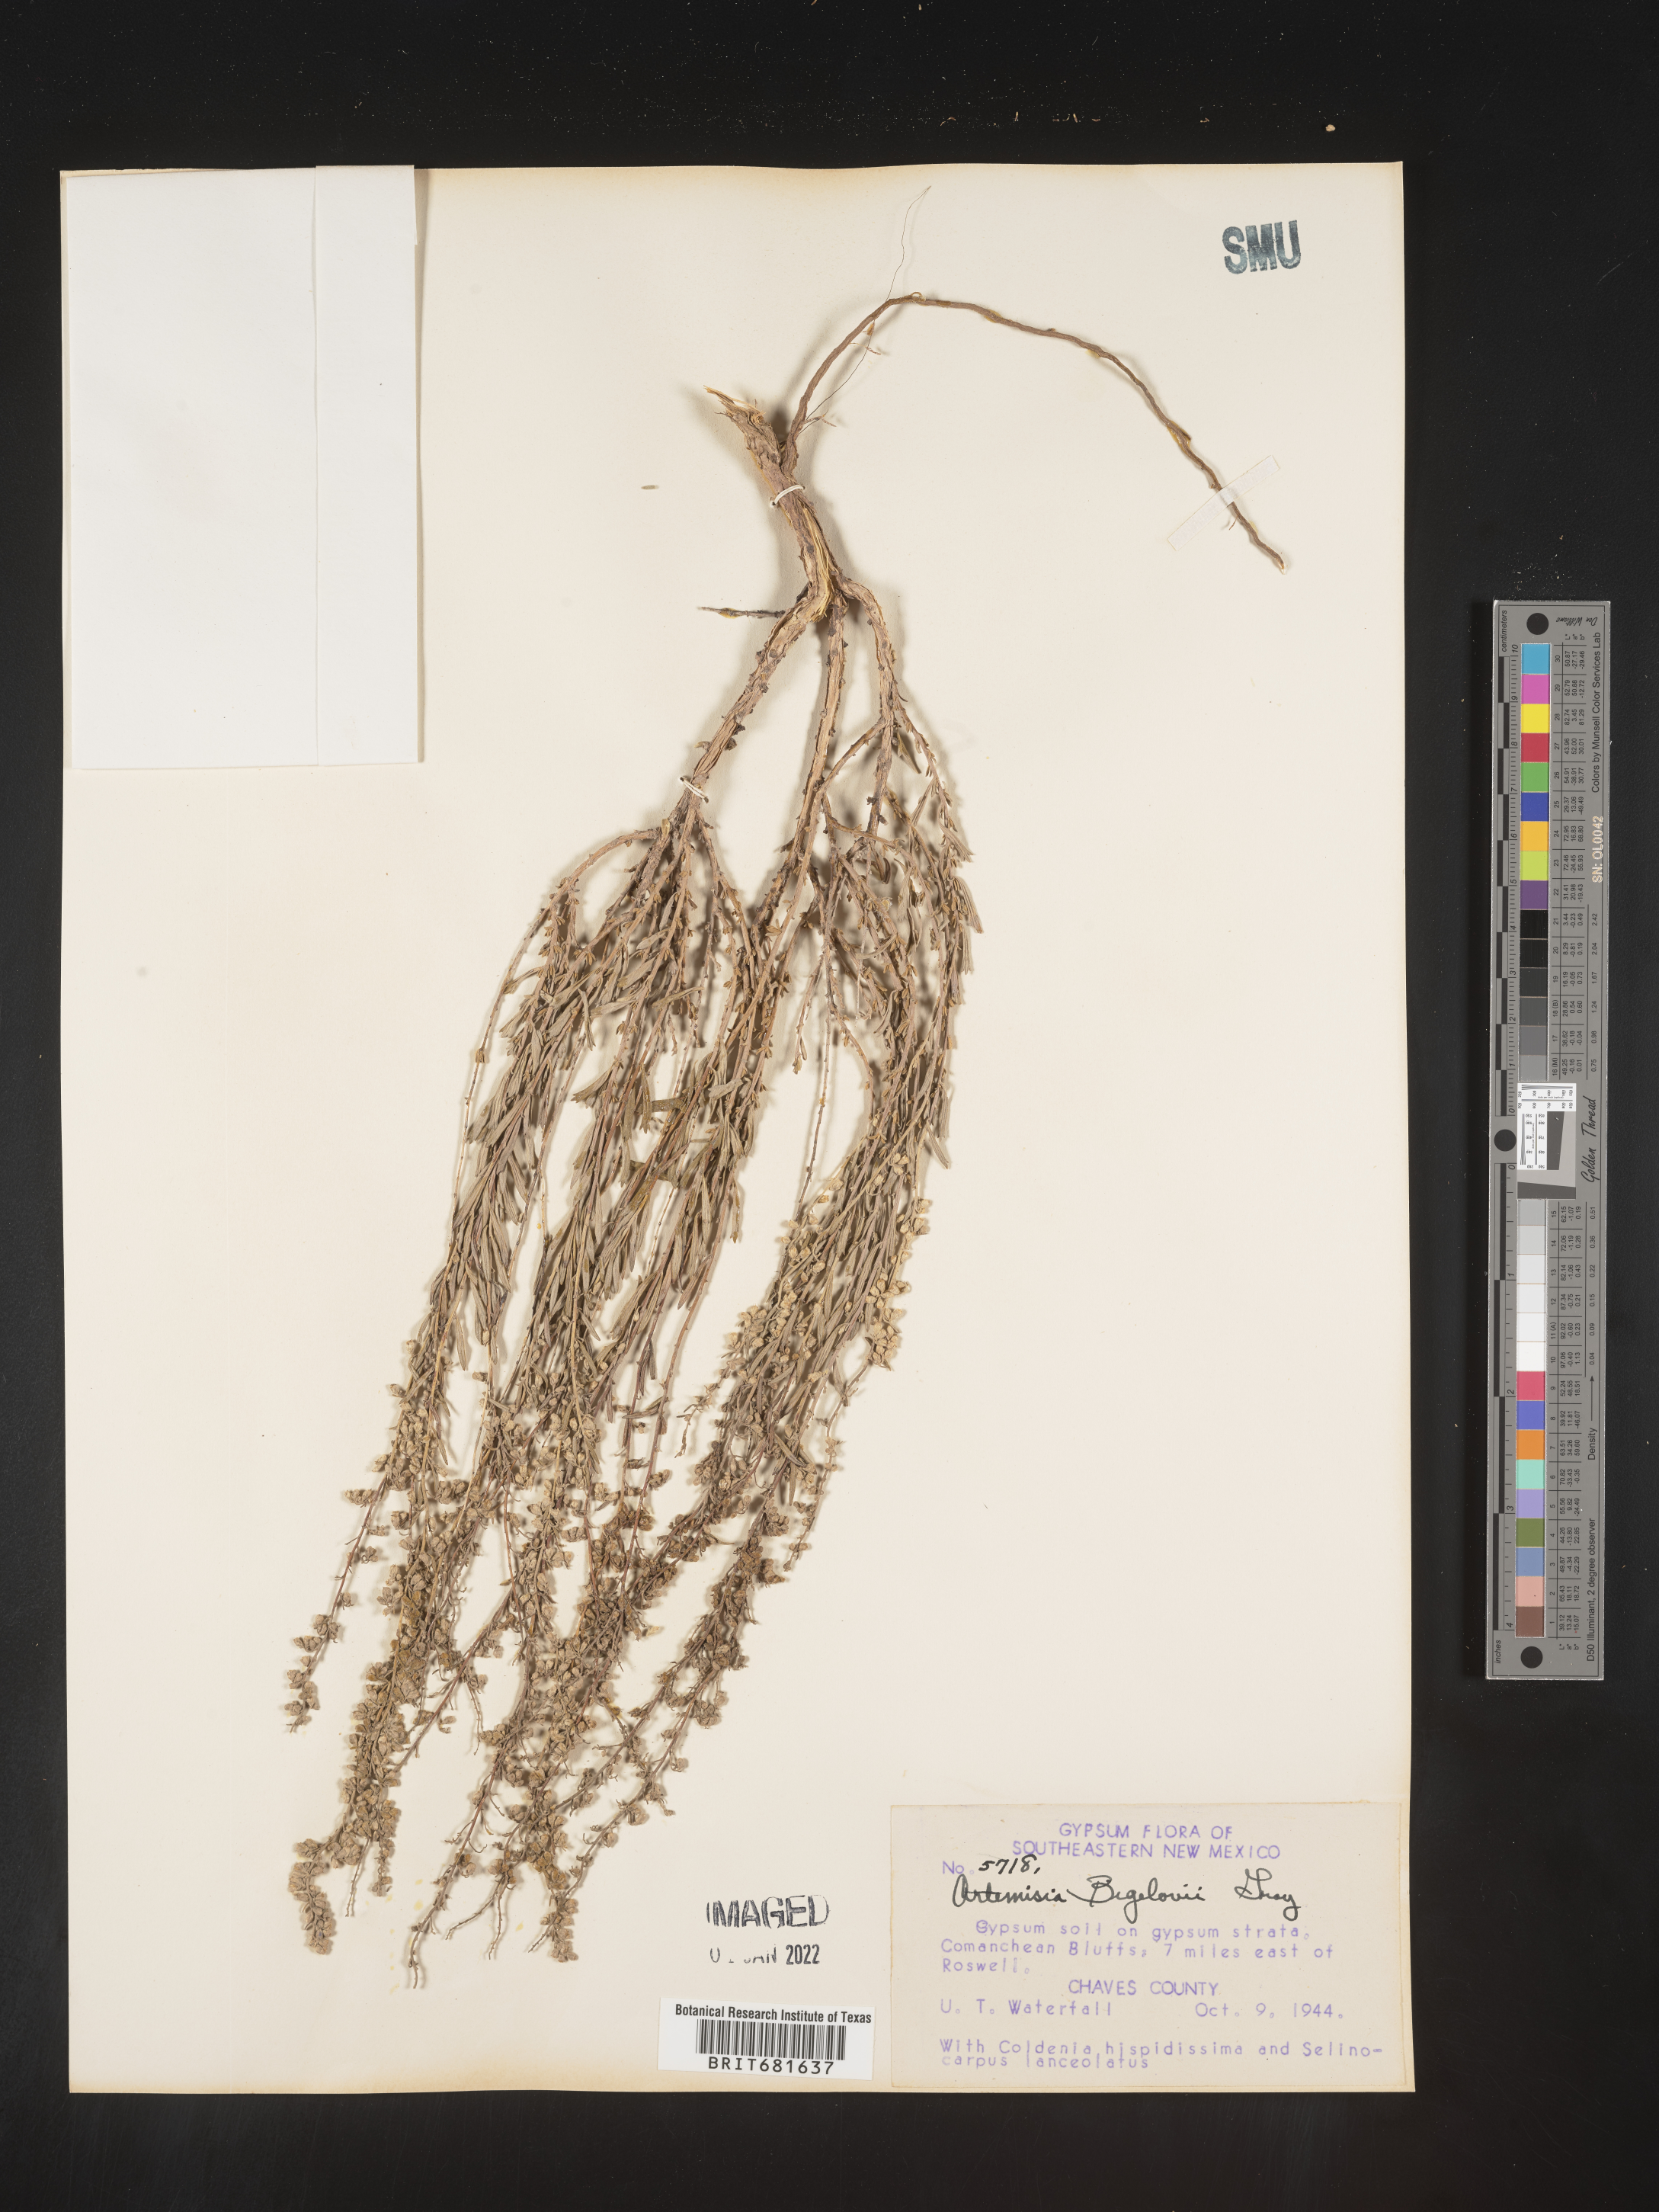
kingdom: Plantae
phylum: Tracheophyta
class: Magnoliopsida
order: Asterales
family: Asteraceae
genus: Artemisia
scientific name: Artemisia bigelovii
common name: Bigelow sagebrush
